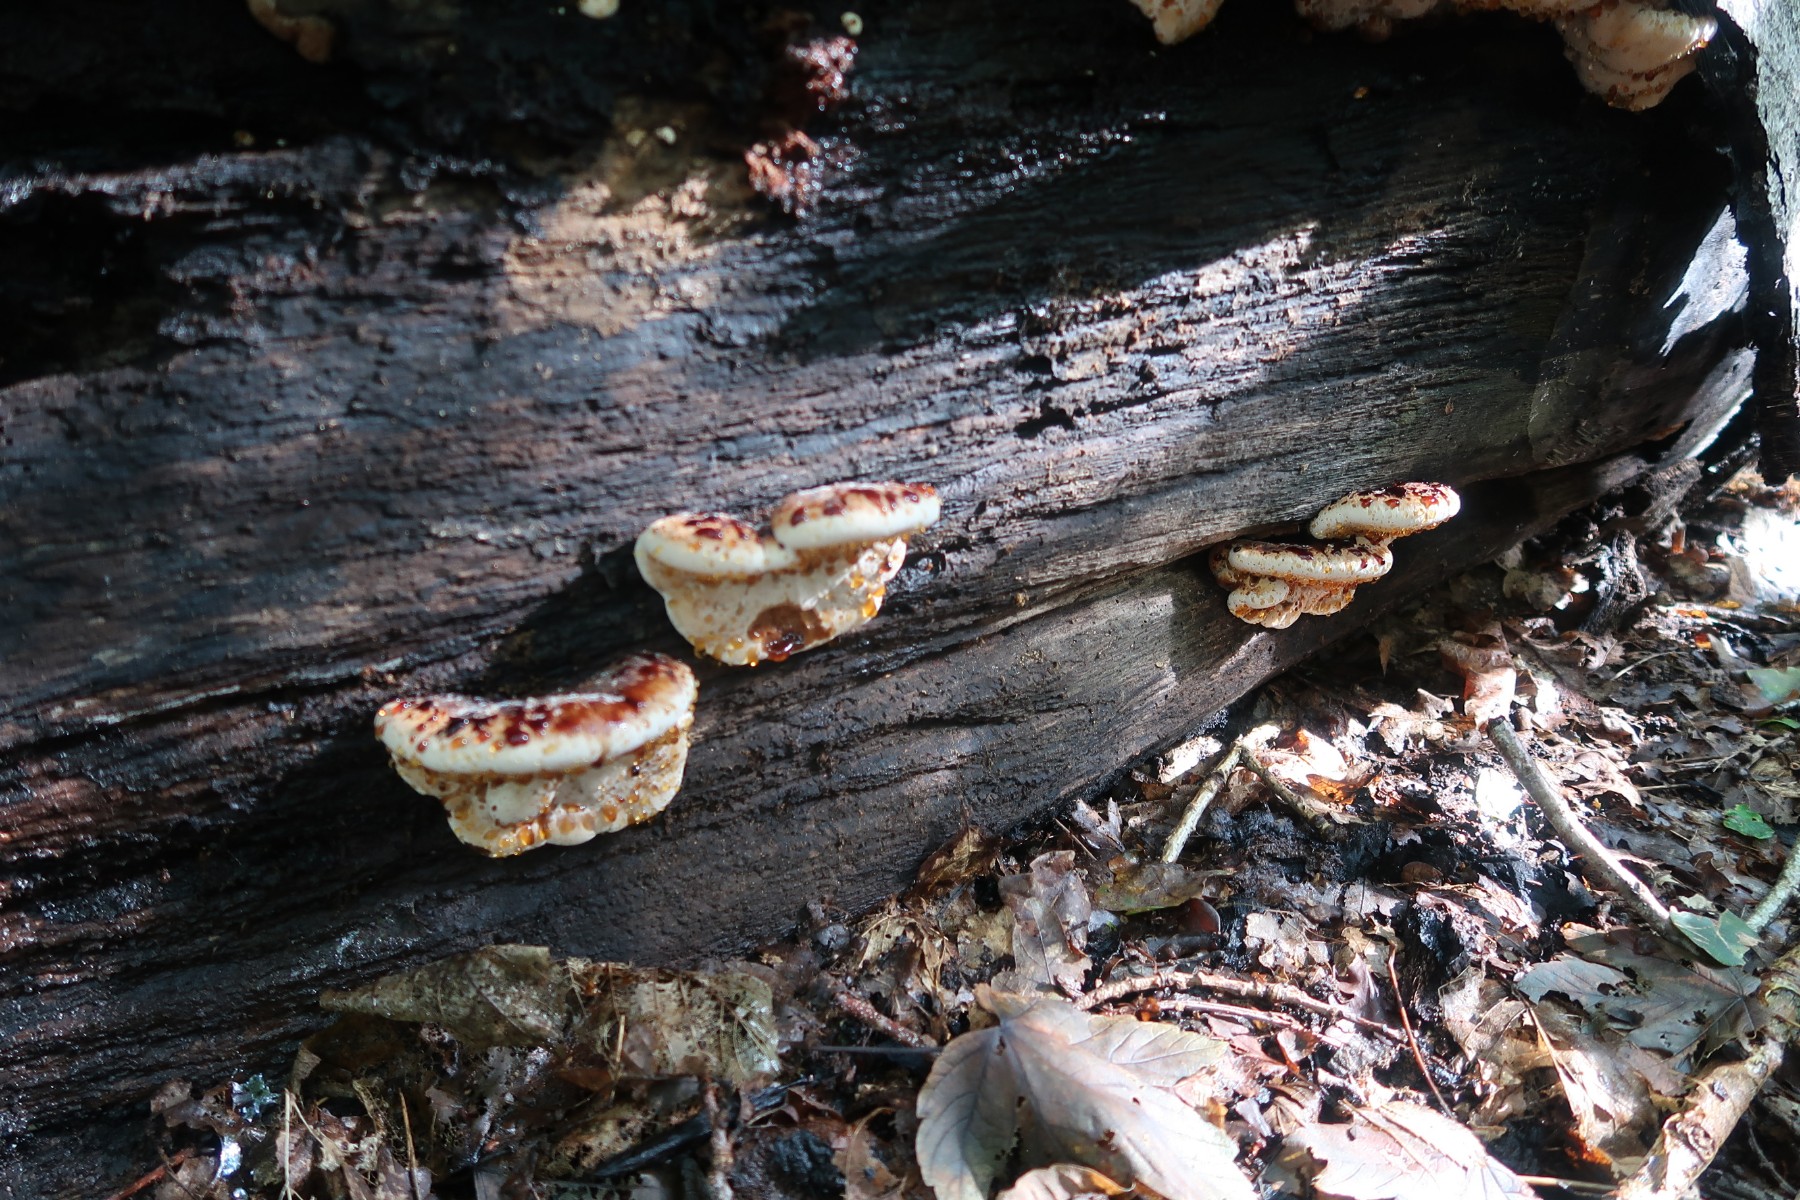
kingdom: Fungi
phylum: Basidiomycota
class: Agaricomycetes
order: Polyporales
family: Ischnodermataceae
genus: Ischnoderma
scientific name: Ischnoderma resinosum
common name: løv-tjæreporesvamp
